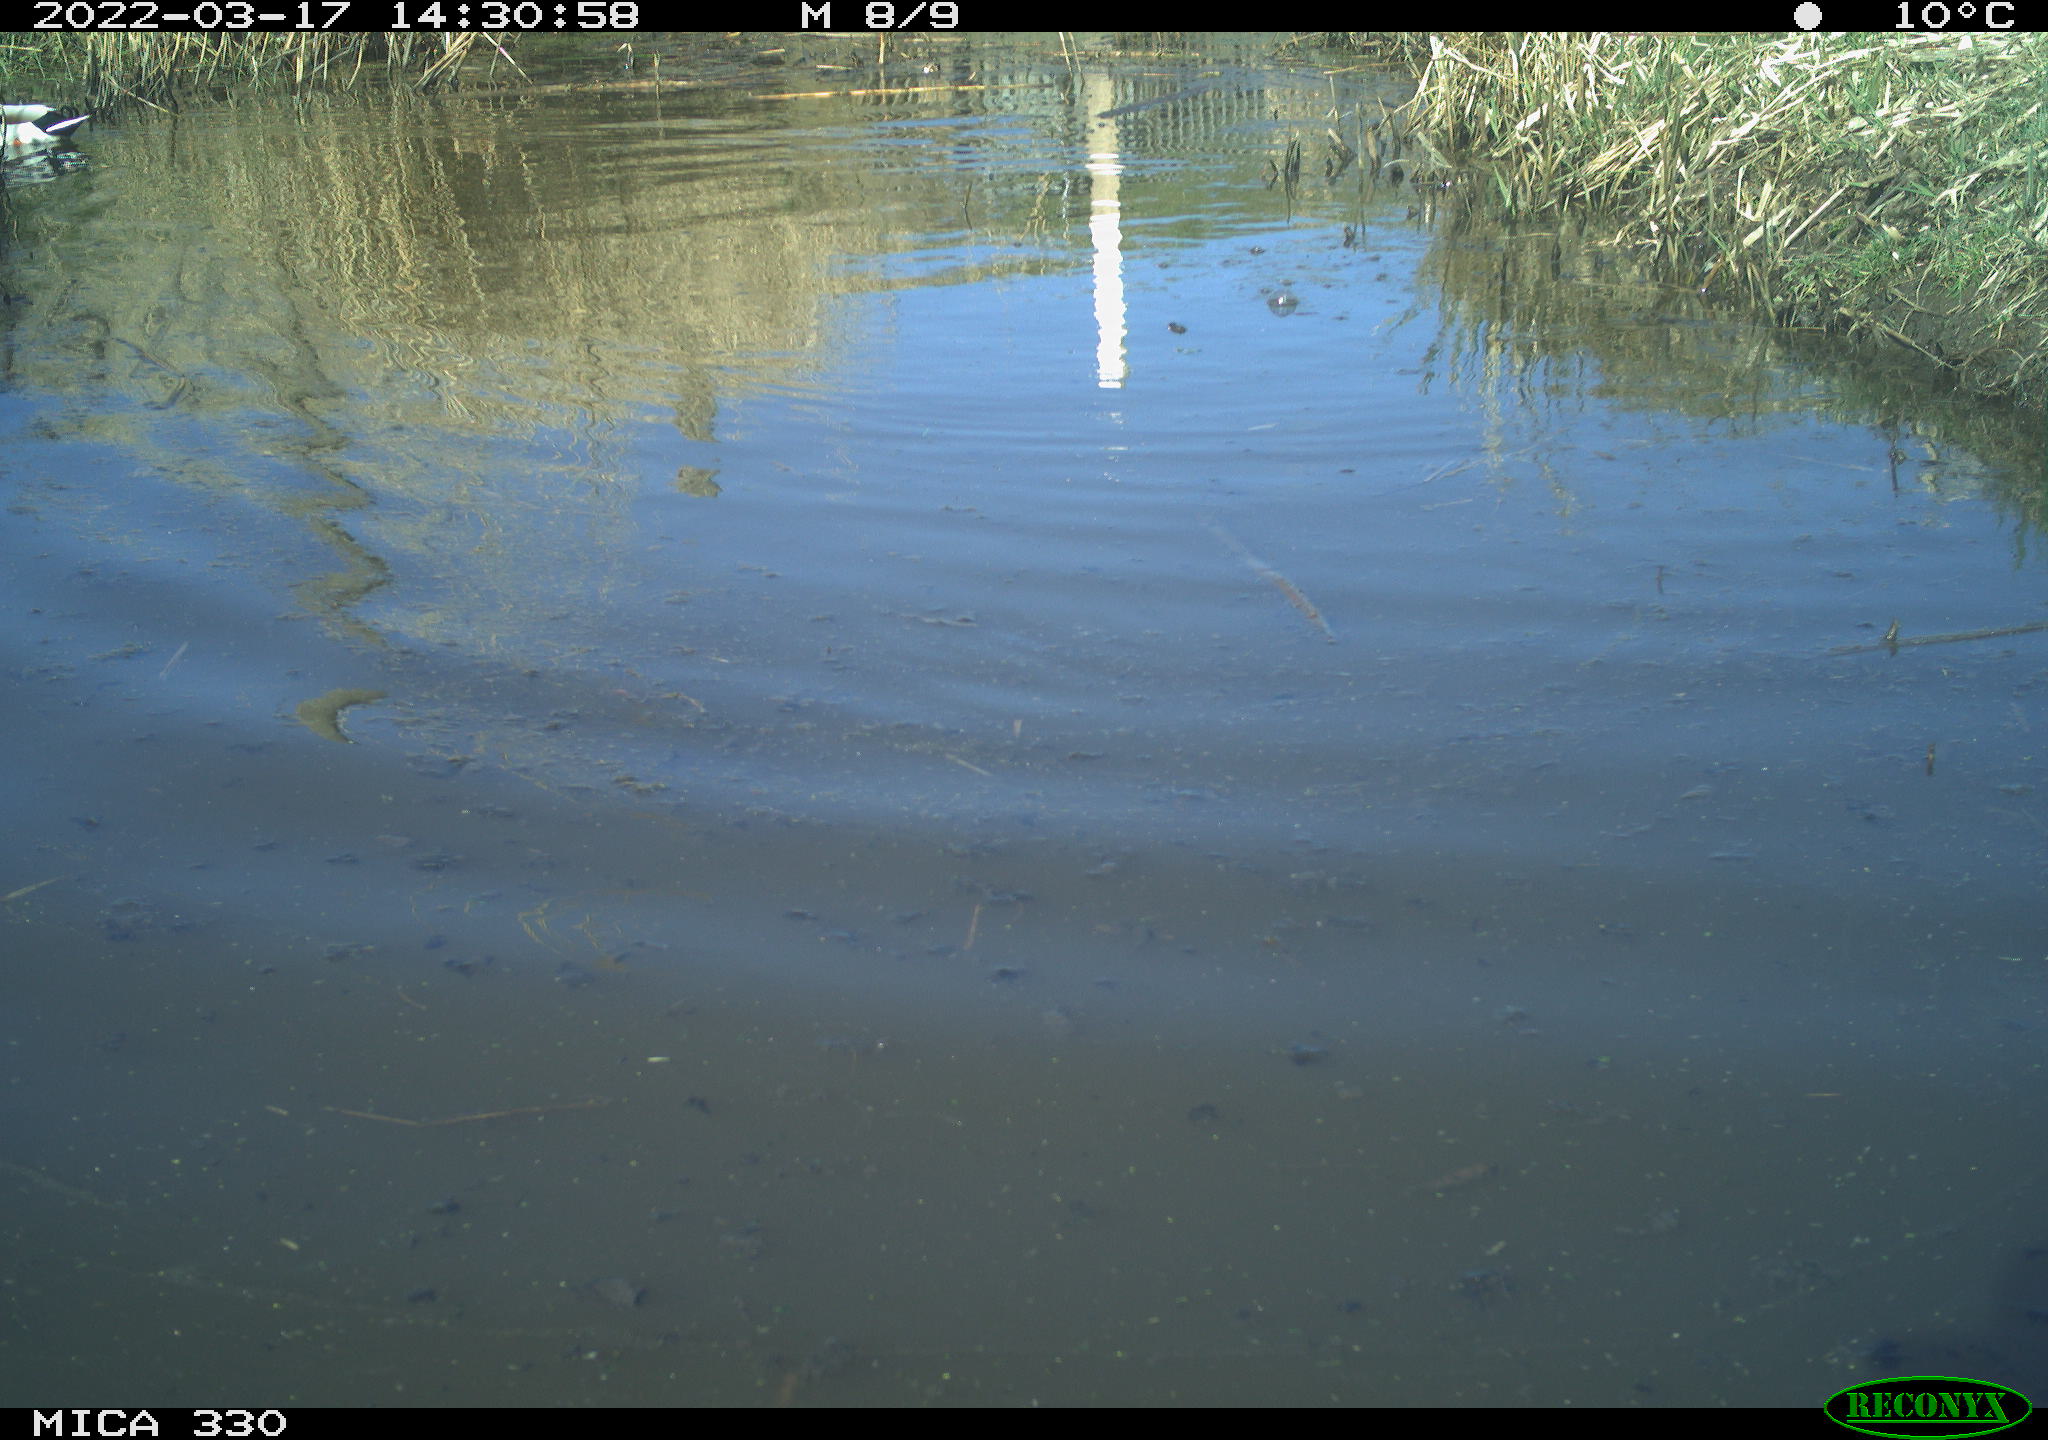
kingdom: Animalia
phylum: Chordata
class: Aves
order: Anseriformes
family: Anatidae
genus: Anas
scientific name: Anas platyrhynchos
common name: Mallard
